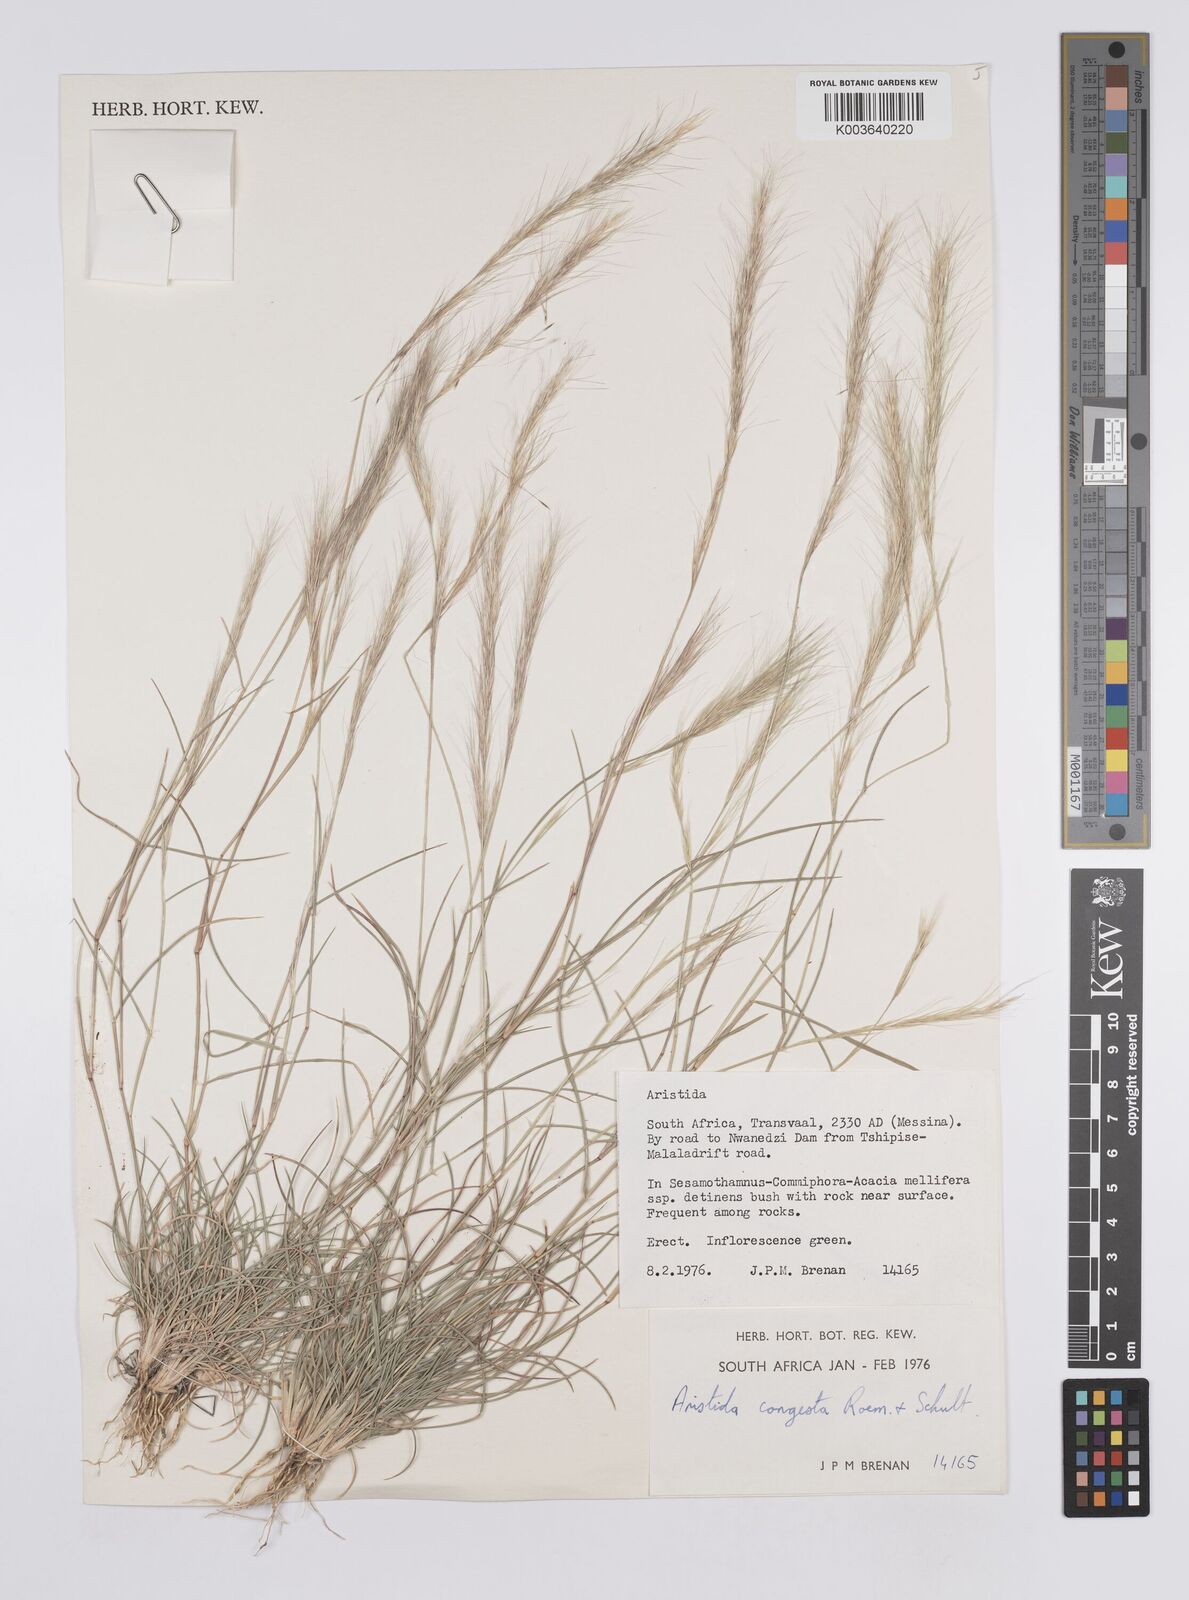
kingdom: Plantae
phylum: Tracheophyta
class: Liliopsida
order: Poales
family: Poaceae
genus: Aristida
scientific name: Aristida congesta
